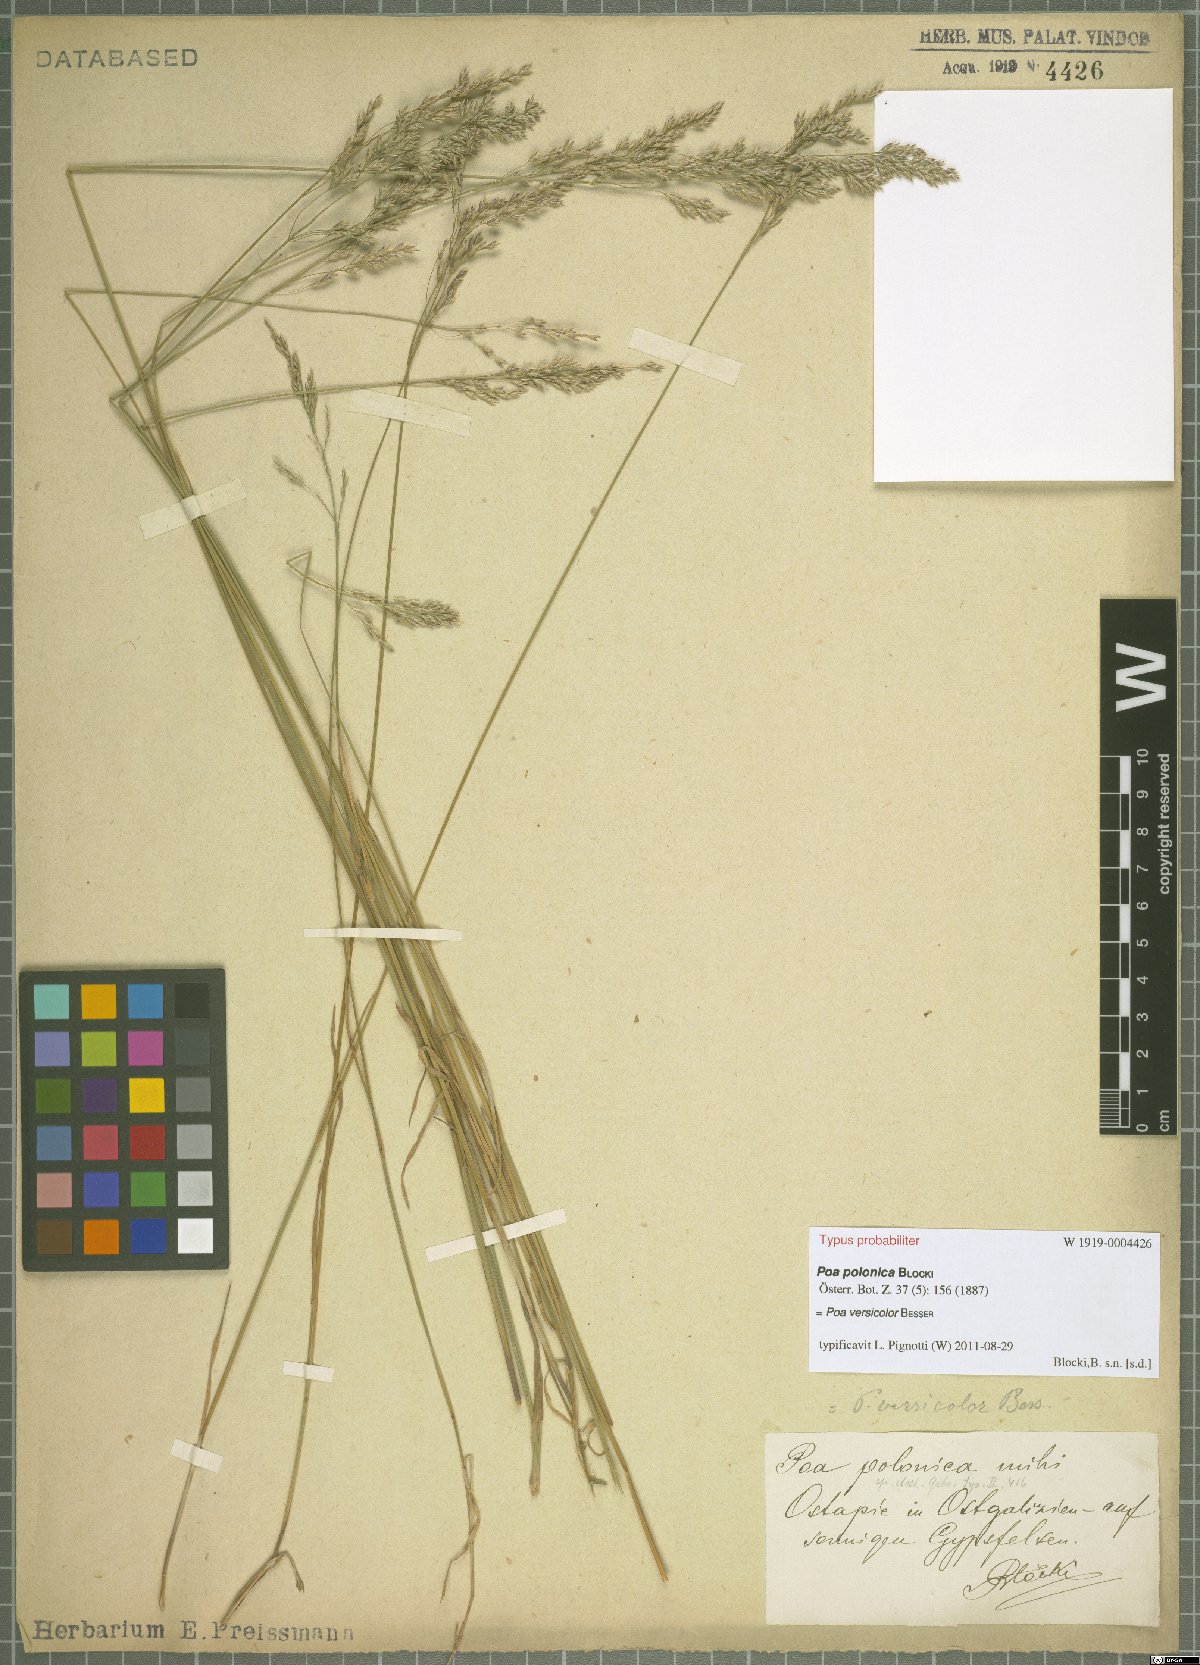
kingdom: Plantae
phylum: Tracheophyta
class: Liliopsida
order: Poales
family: Poaceae
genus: Poa
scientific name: Poa versicolor
